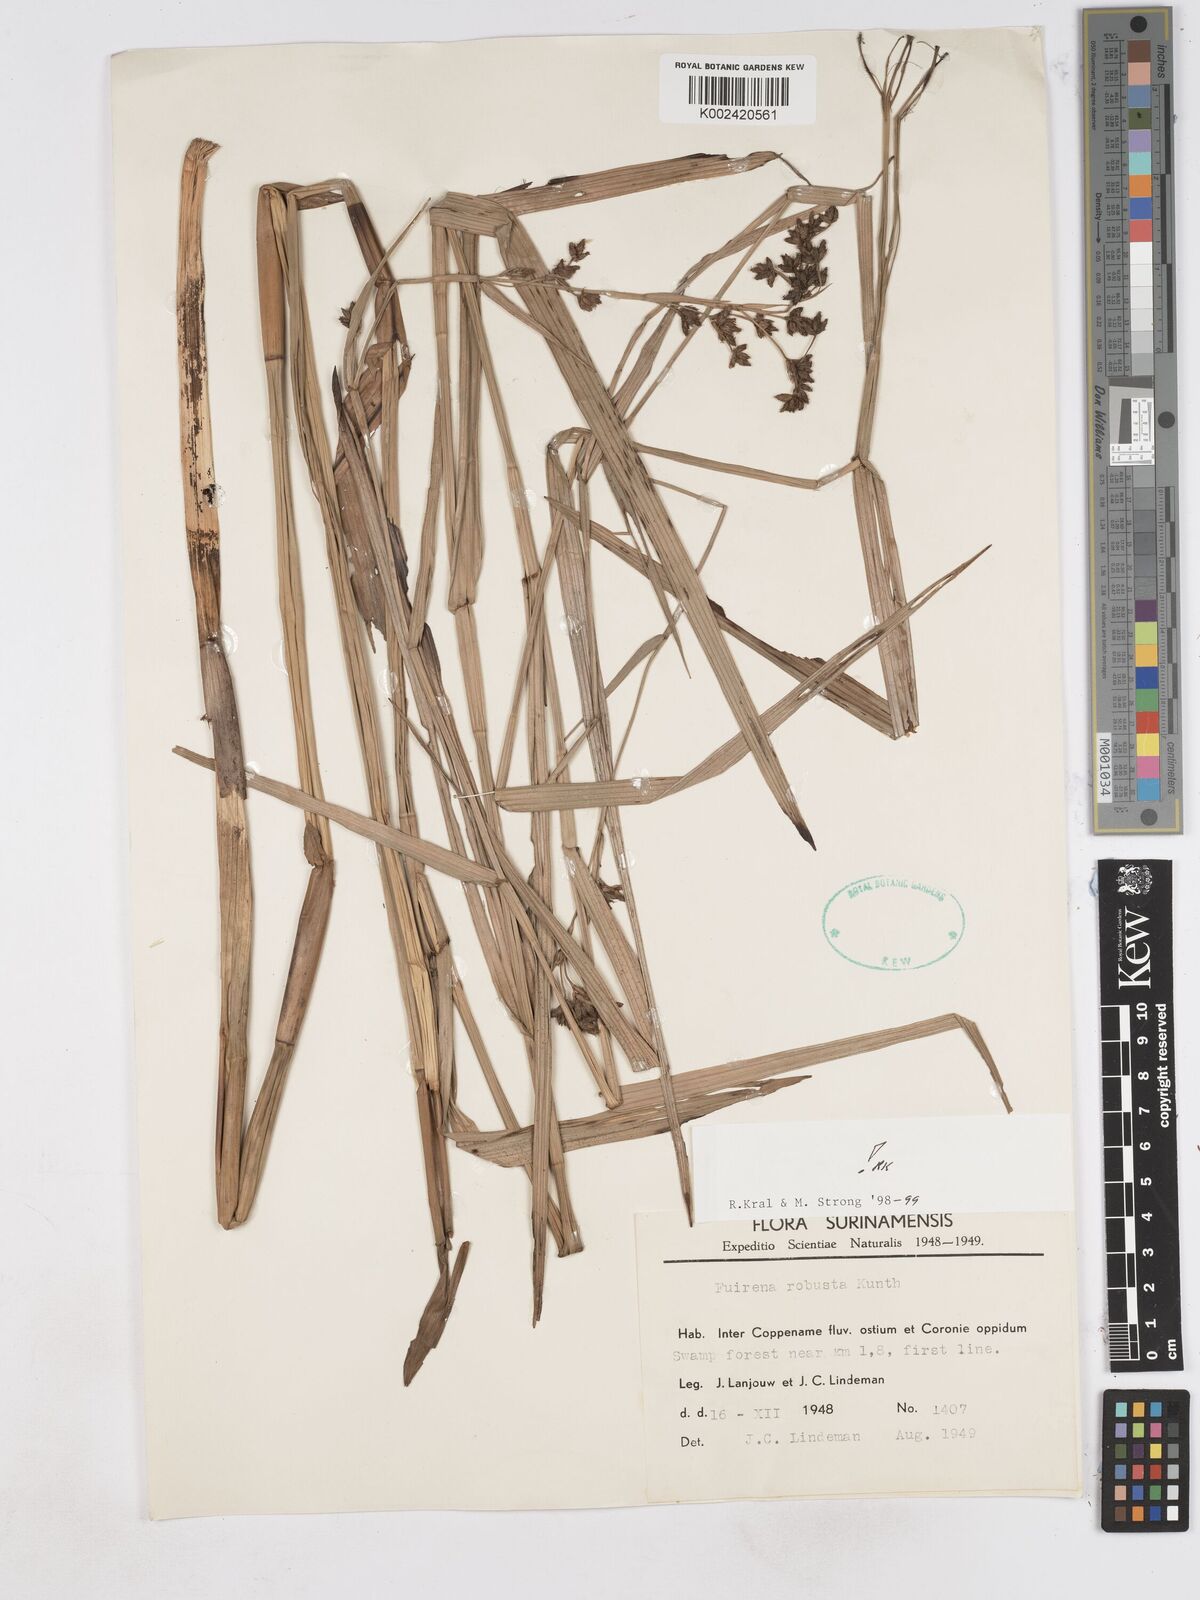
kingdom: Plantae
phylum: Tracheophyta
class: Liliopsida
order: Poales
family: Cyperaceae
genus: Fuirena
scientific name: Fuirena robusta
